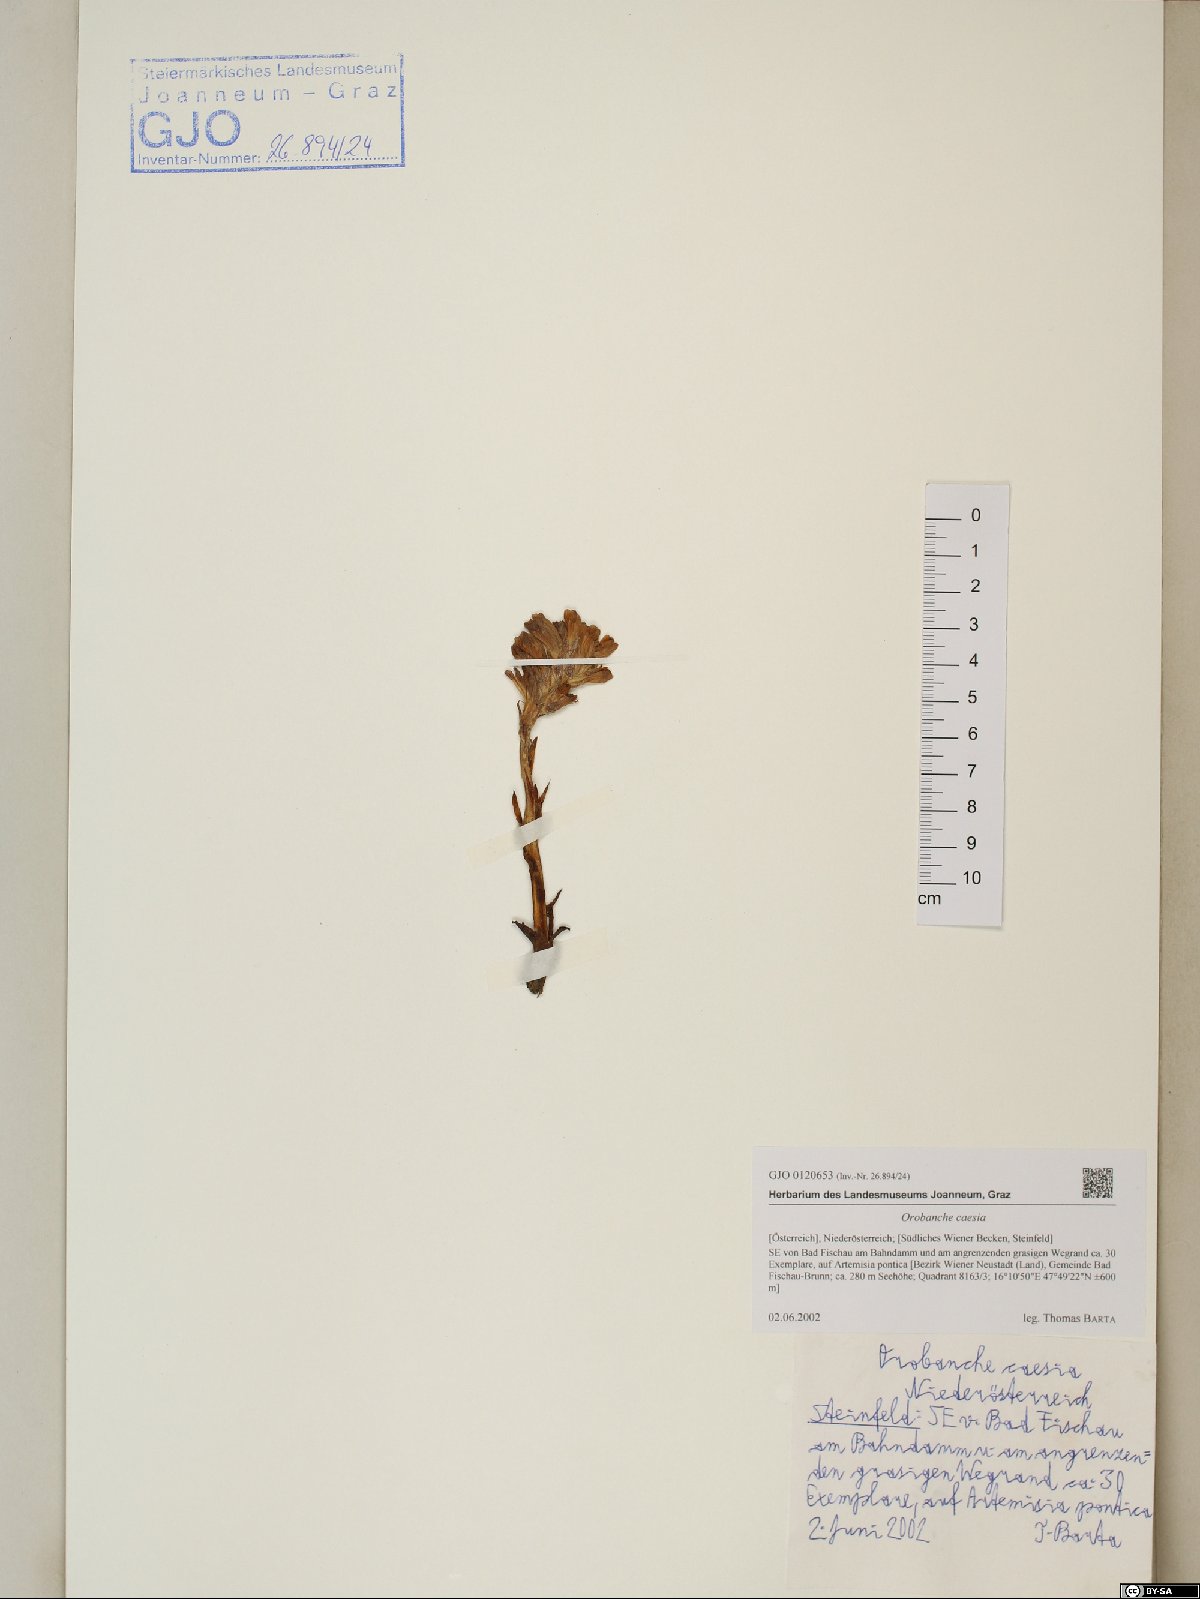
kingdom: Plantae
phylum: Tracheophyta
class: Magnoliopsida
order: Lamiales
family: Orobanchaceae
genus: Phelipanche
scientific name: Phelipanche caesia
